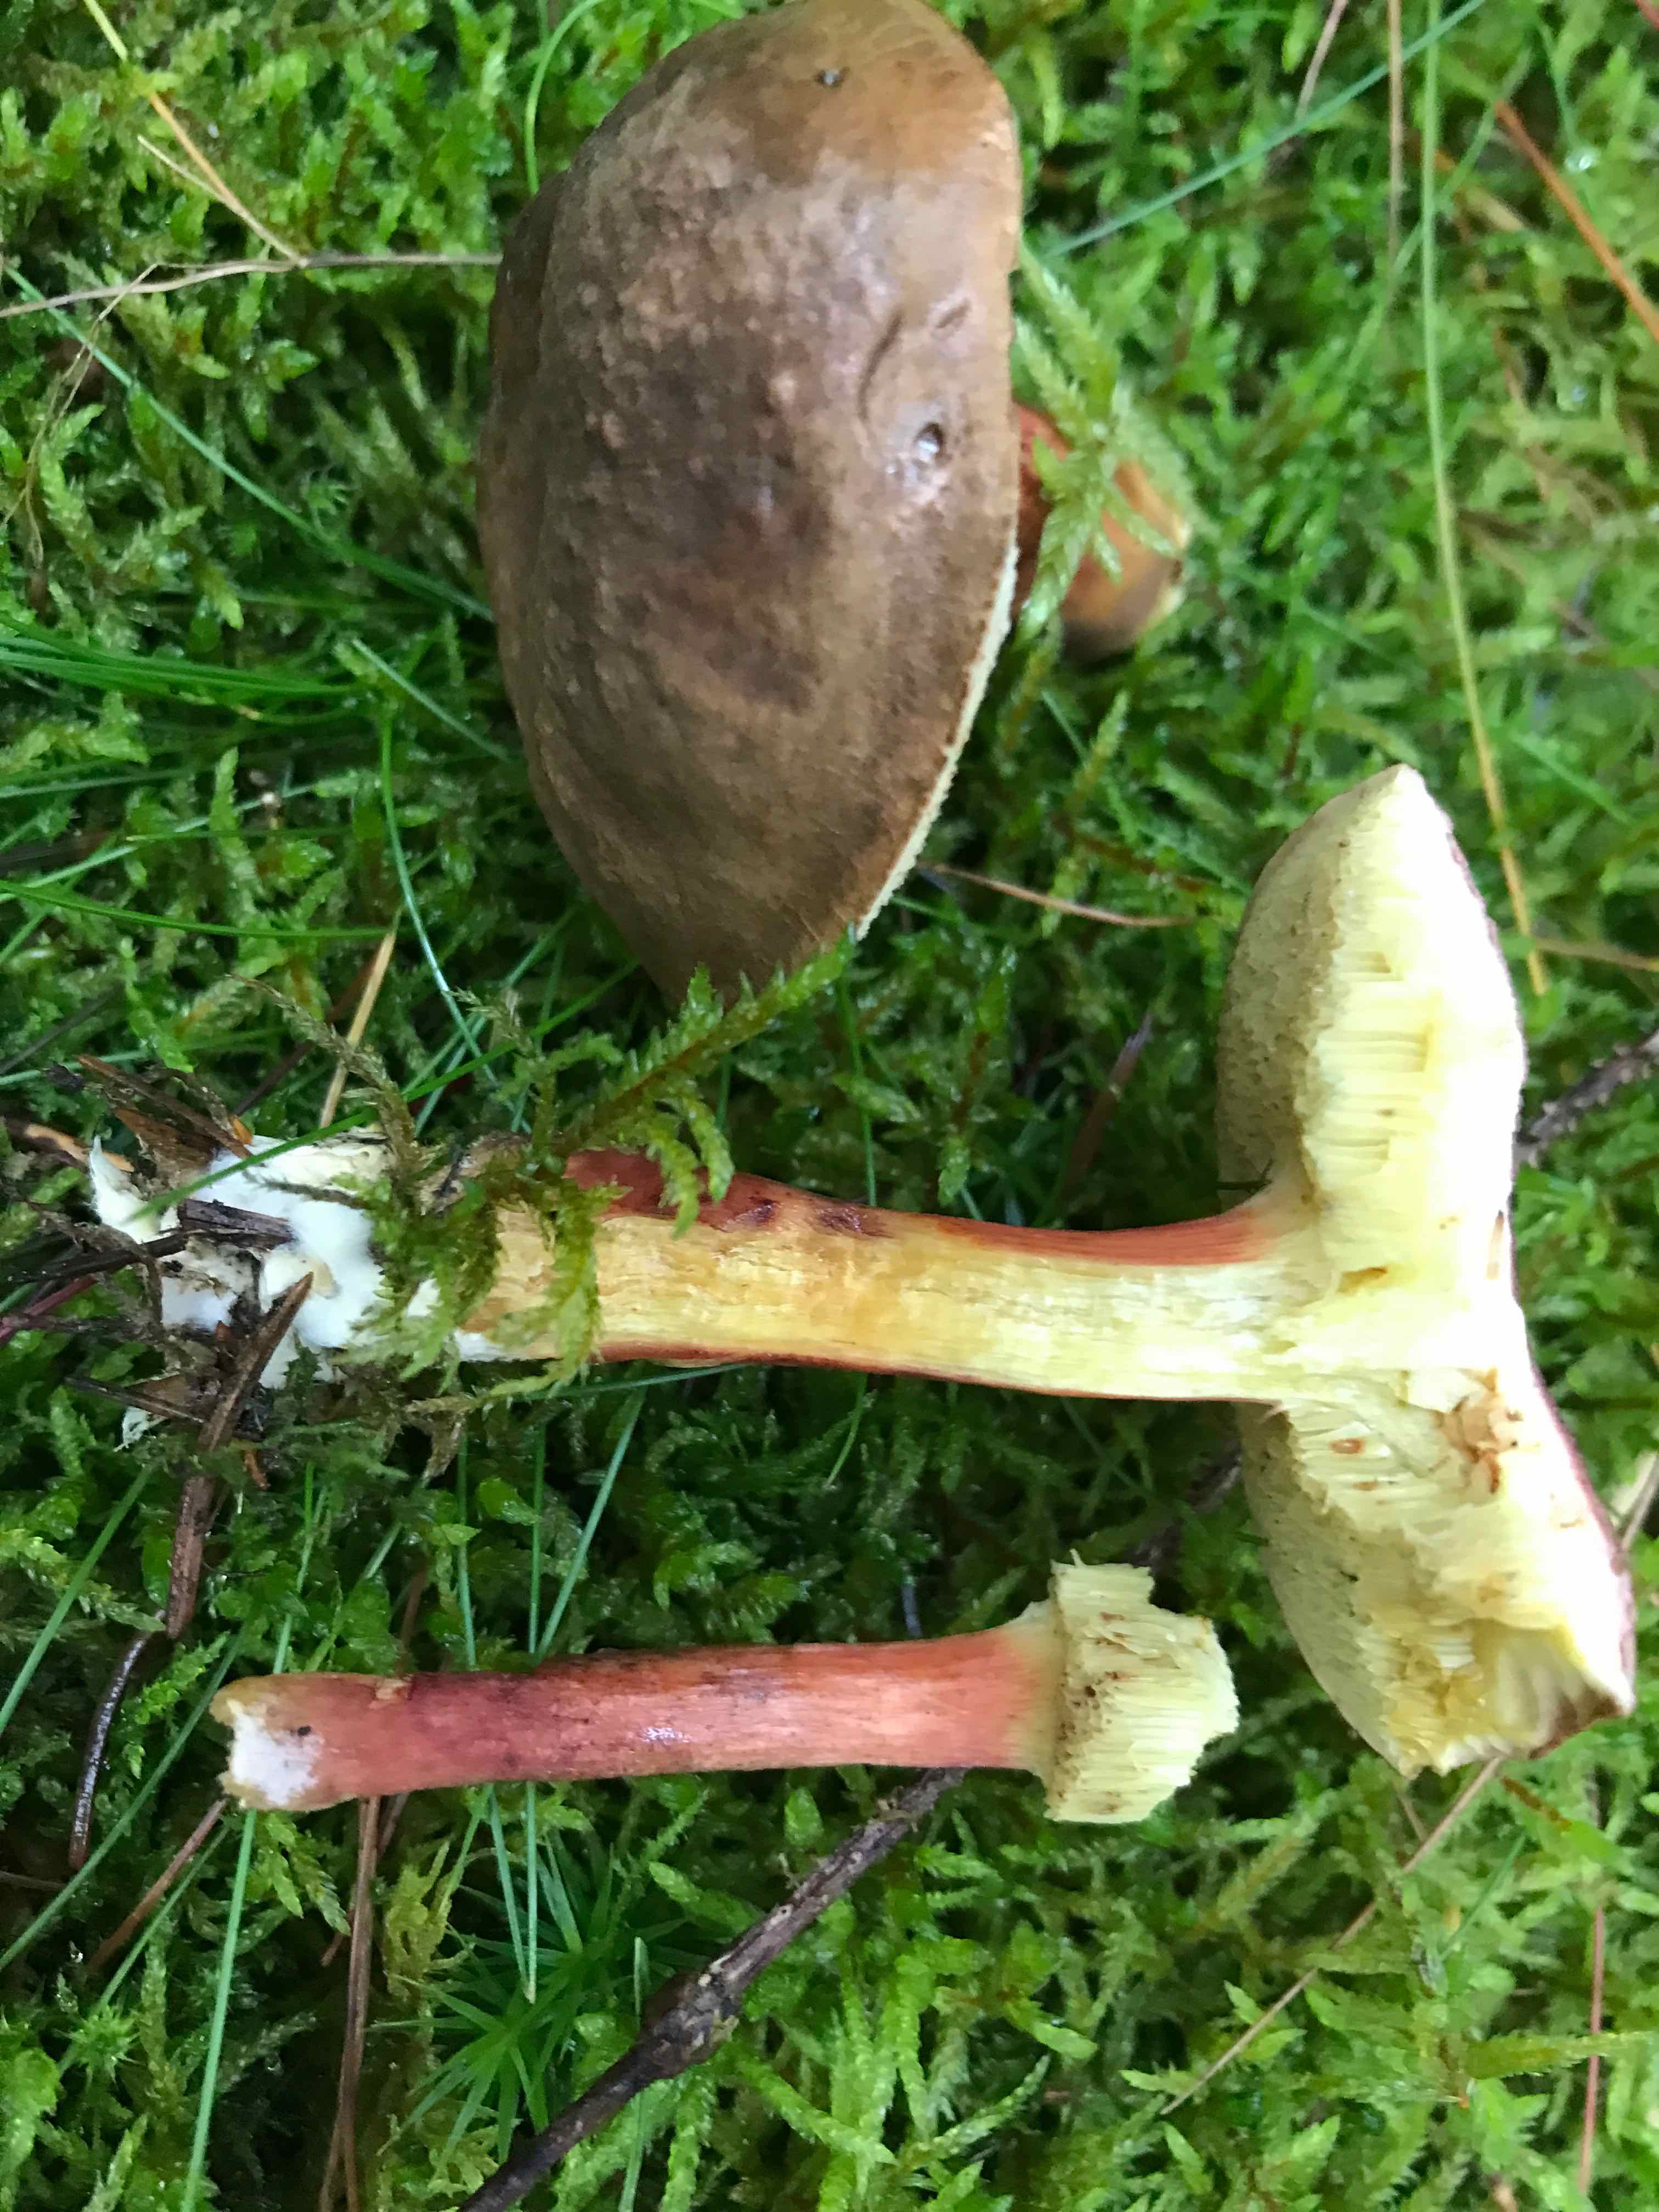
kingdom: Fungi
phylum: Basidiomycota
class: Agaricomycetes
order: Boletales
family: Boletaceae
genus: Xerocomellus
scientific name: Xerocomellus pruinatus
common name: dugget rørhat
